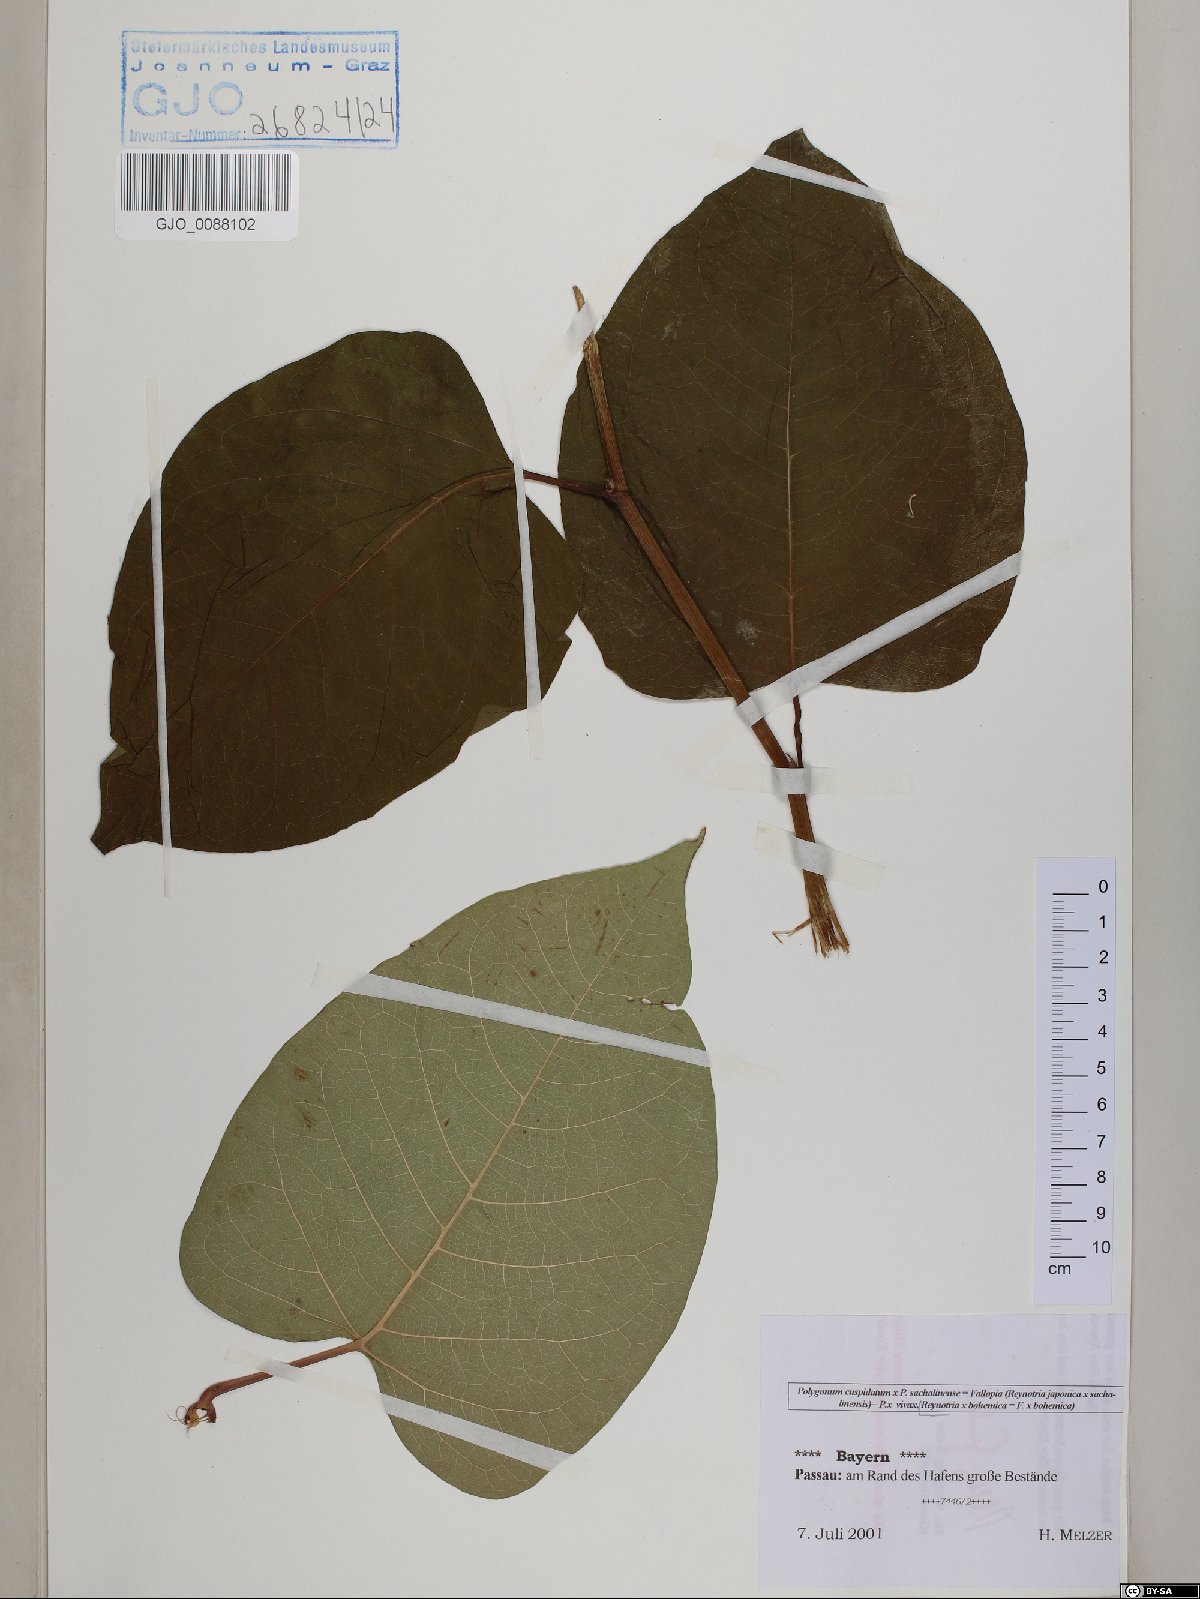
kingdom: Plantae
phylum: Tracheophyta
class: Magnoliopsida
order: Caryophyllales
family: Polygonaceae
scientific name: Polygonaceae
